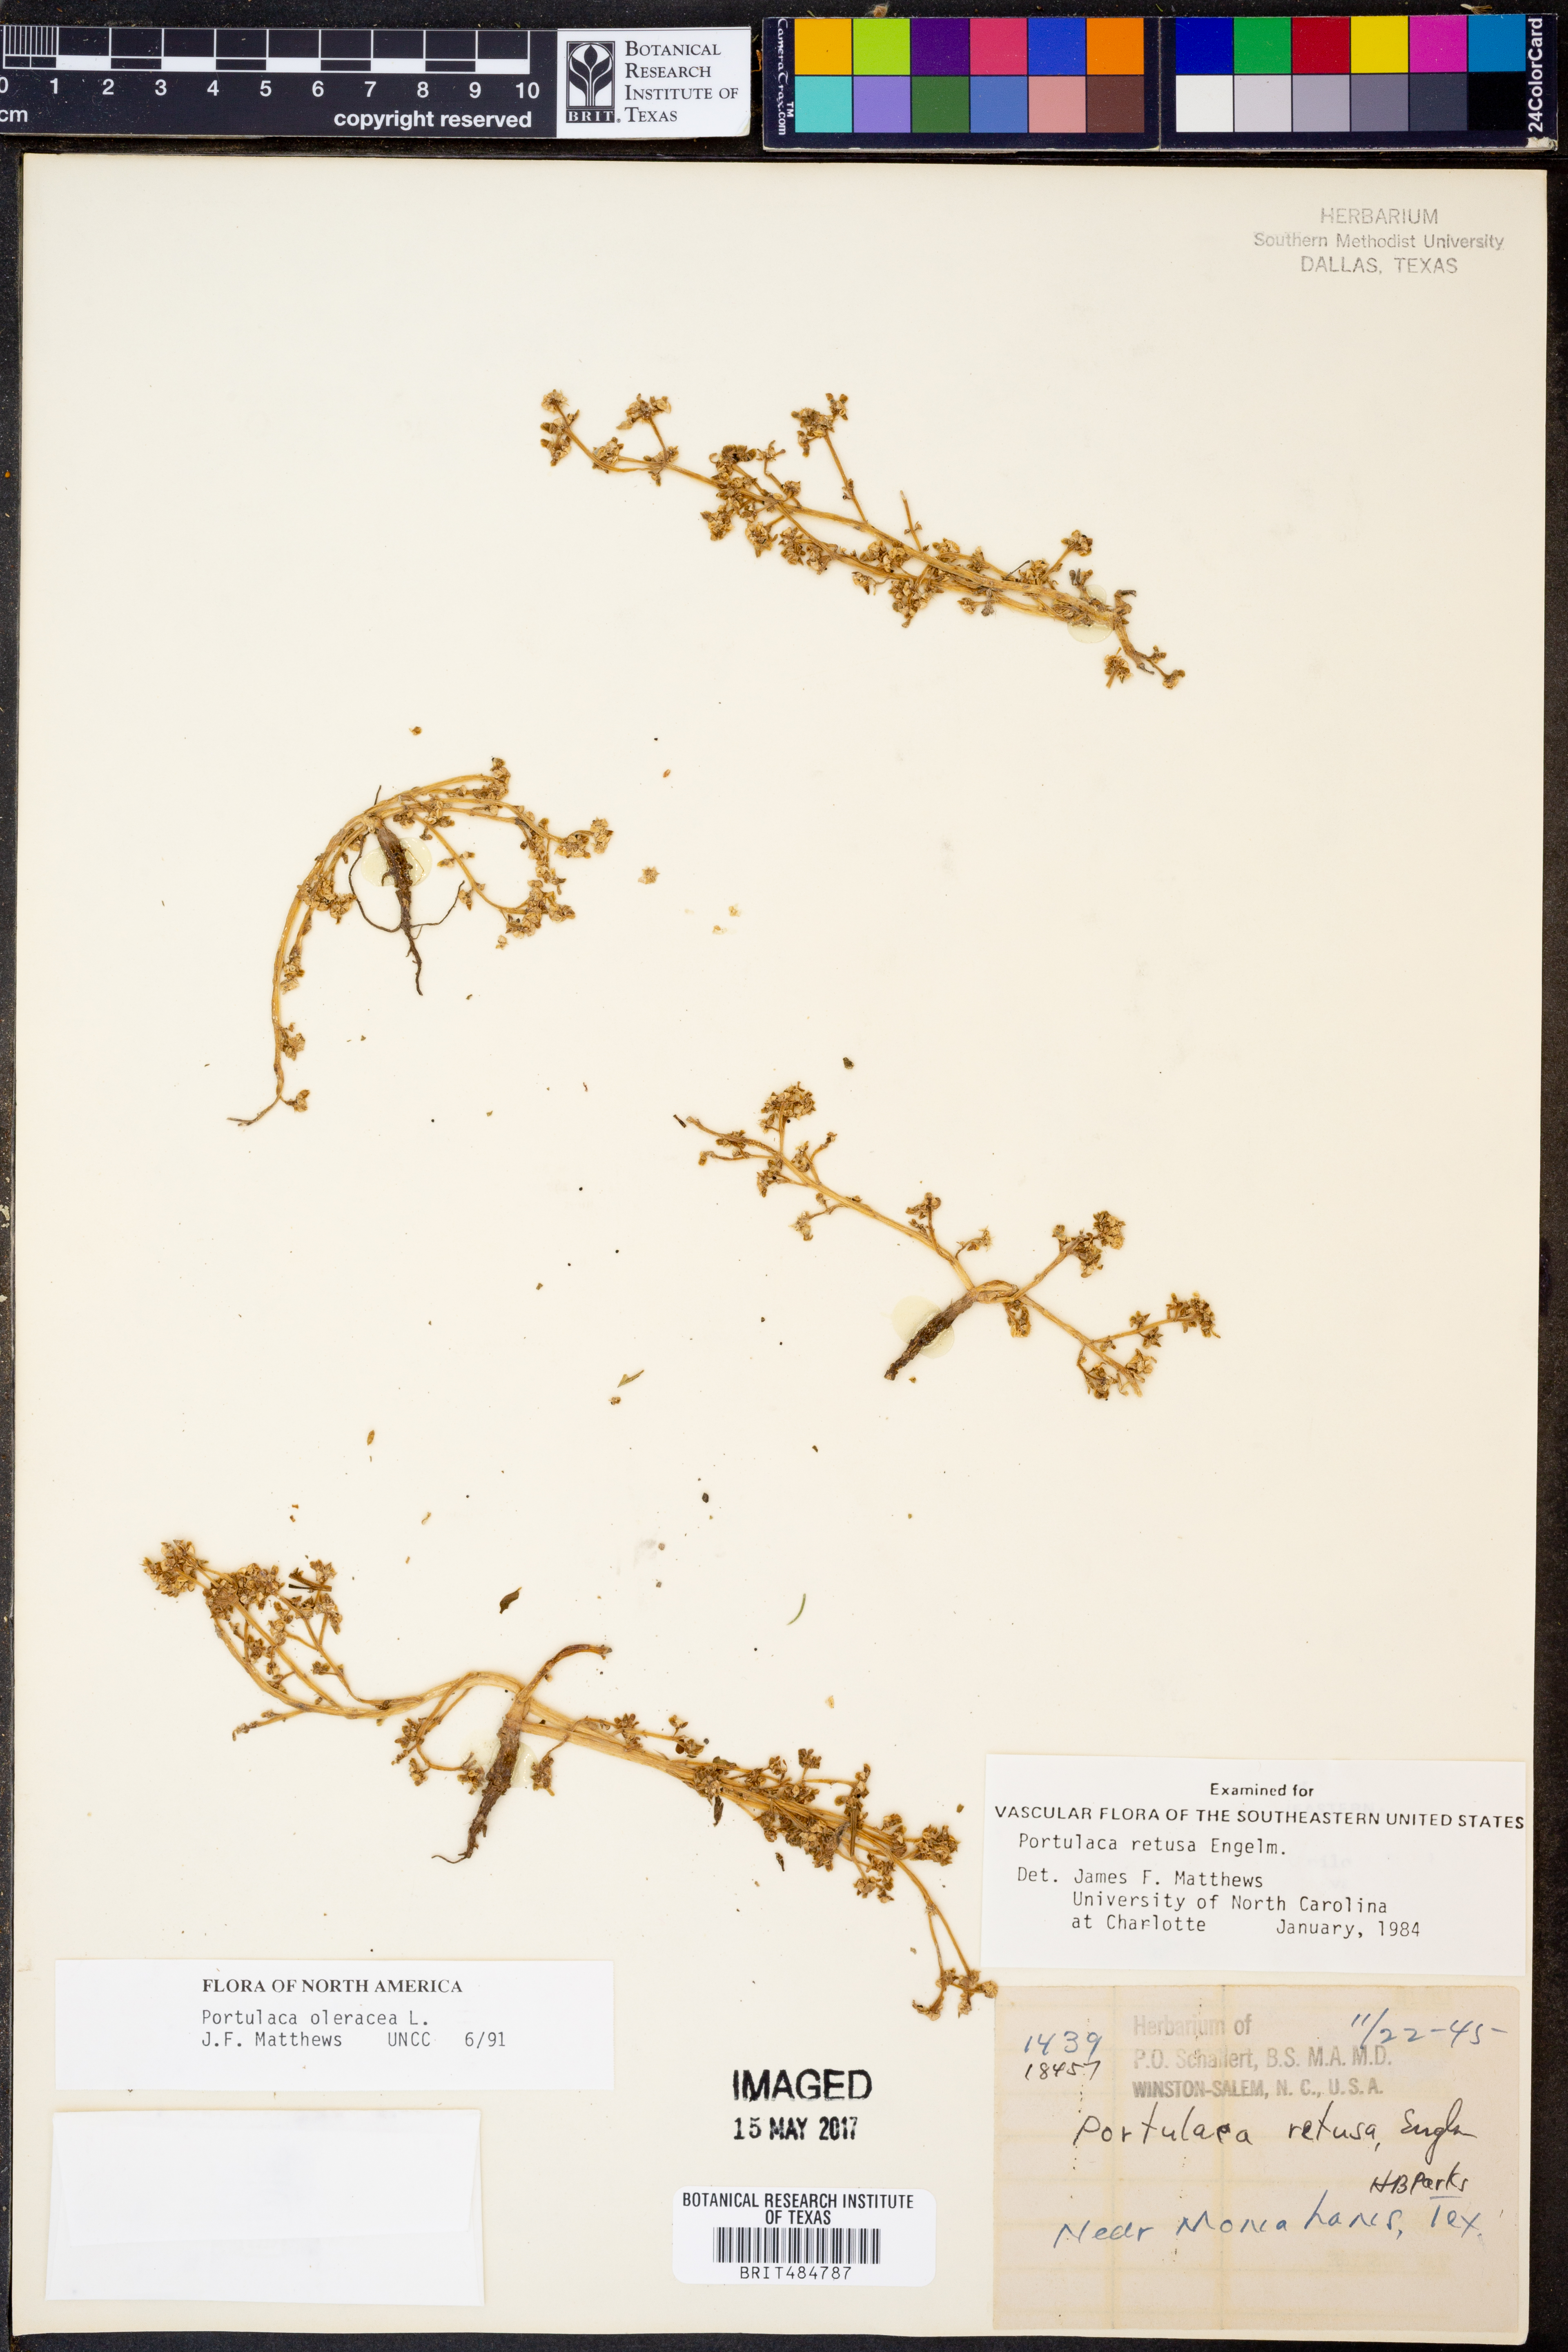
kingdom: Plantae
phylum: Tracheophyta
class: Magnoliopsida
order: Caryophyllales
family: Portulacaceae
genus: Portulaca
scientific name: Portulaca oleracea
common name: Common purslane
